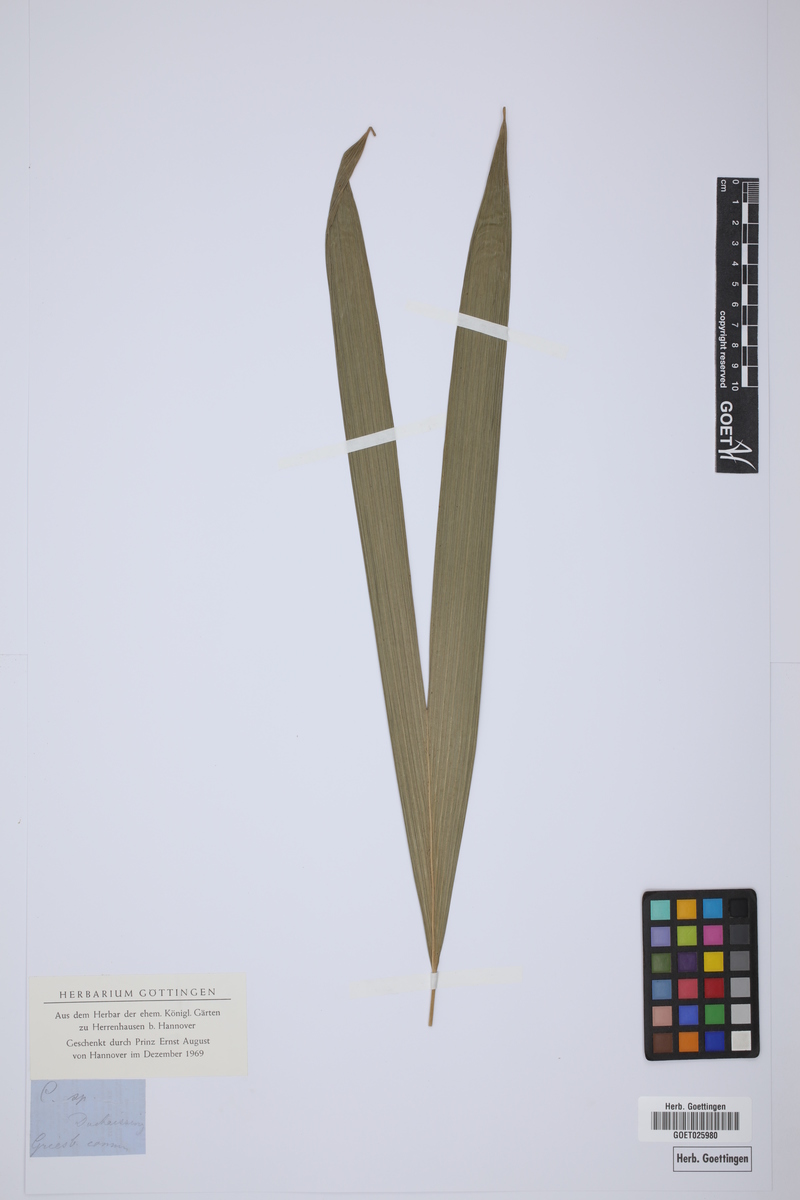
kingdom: Plantae
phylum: Tracheophyta
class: Liliopsida
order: Pandanales
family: Cyclanthaceae
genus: Carludovica
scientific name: Carludovica
